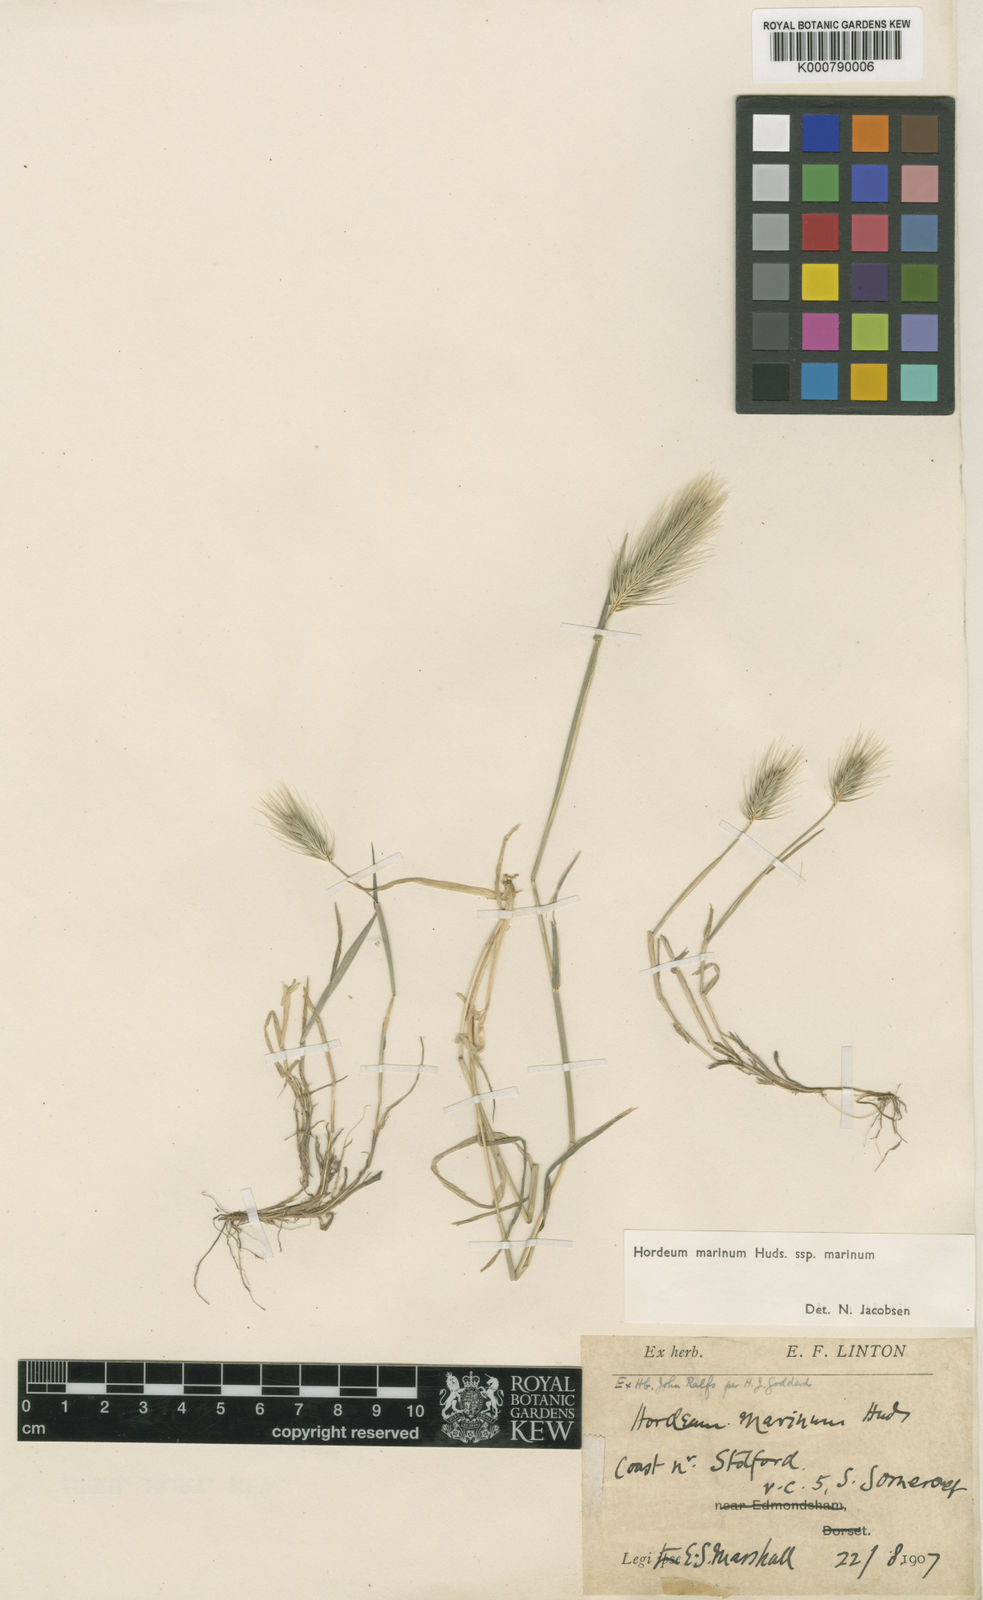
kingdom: Plantae
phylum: Tracheophyta
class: Liliopsida
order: Poales
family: Poaceae
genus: Hordeum
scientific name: Hordeum marinum
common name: Sea barley
